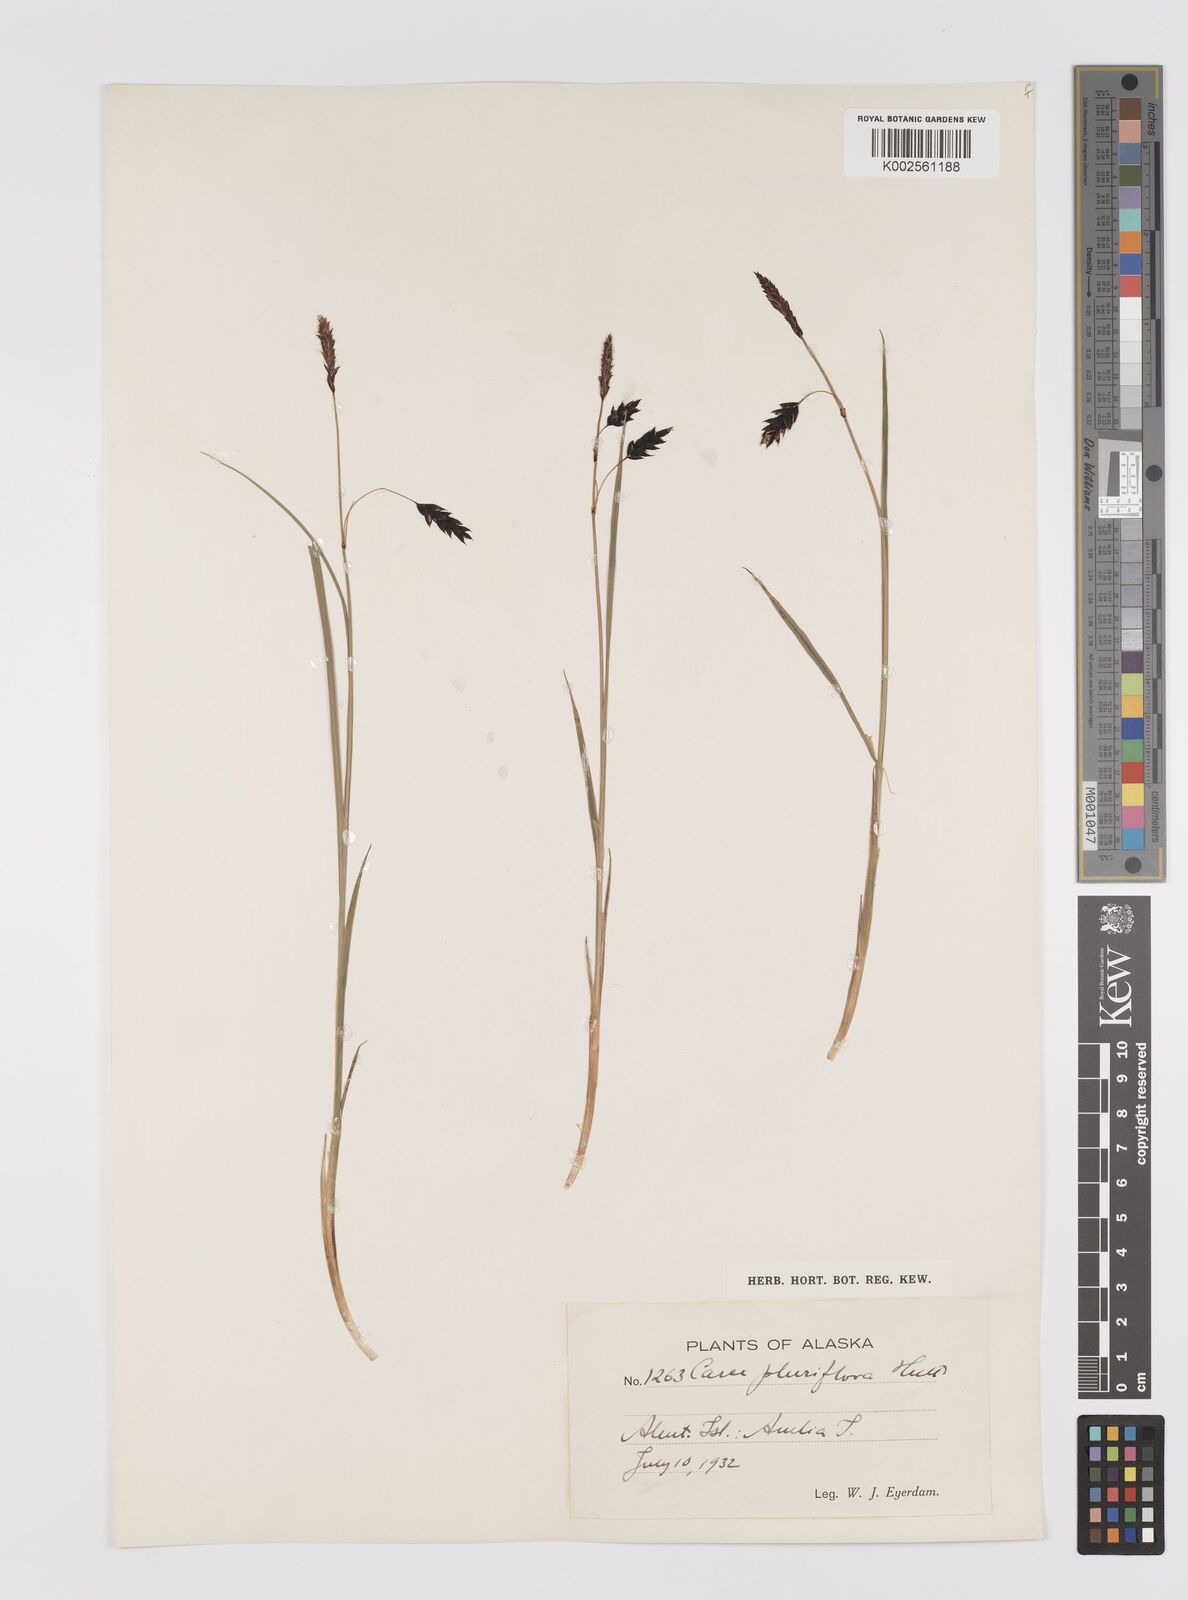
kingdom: Plantae
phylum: Tracheophyta
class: Liliopsida
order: Poales
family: Cyperaceae
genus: Carex
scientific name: Carex pluriflora
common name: Manyflower sedge
